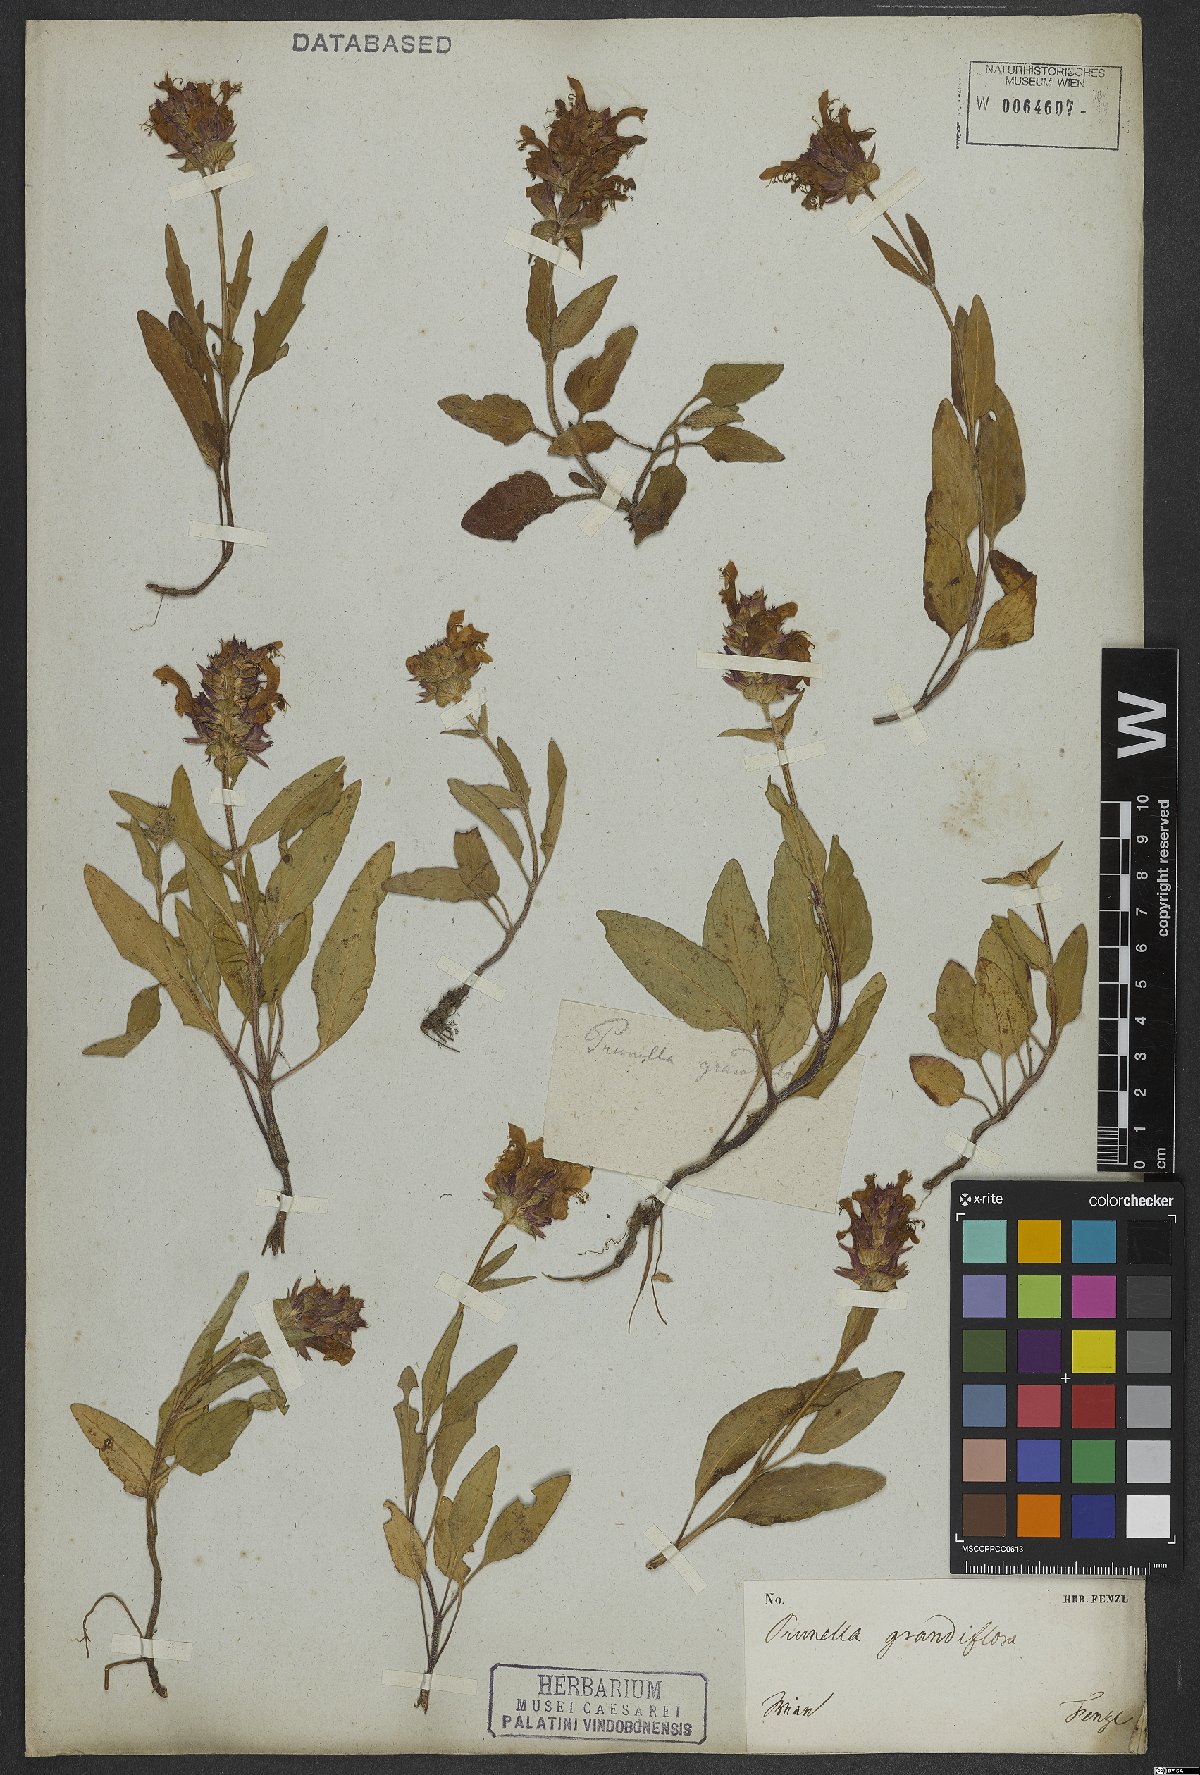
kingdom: Plantae
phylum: Tracheophyta
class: Magnoliopsida
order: Lamiales
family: Lamiaceae
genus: Prunella
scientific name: Prunella grandiflora
